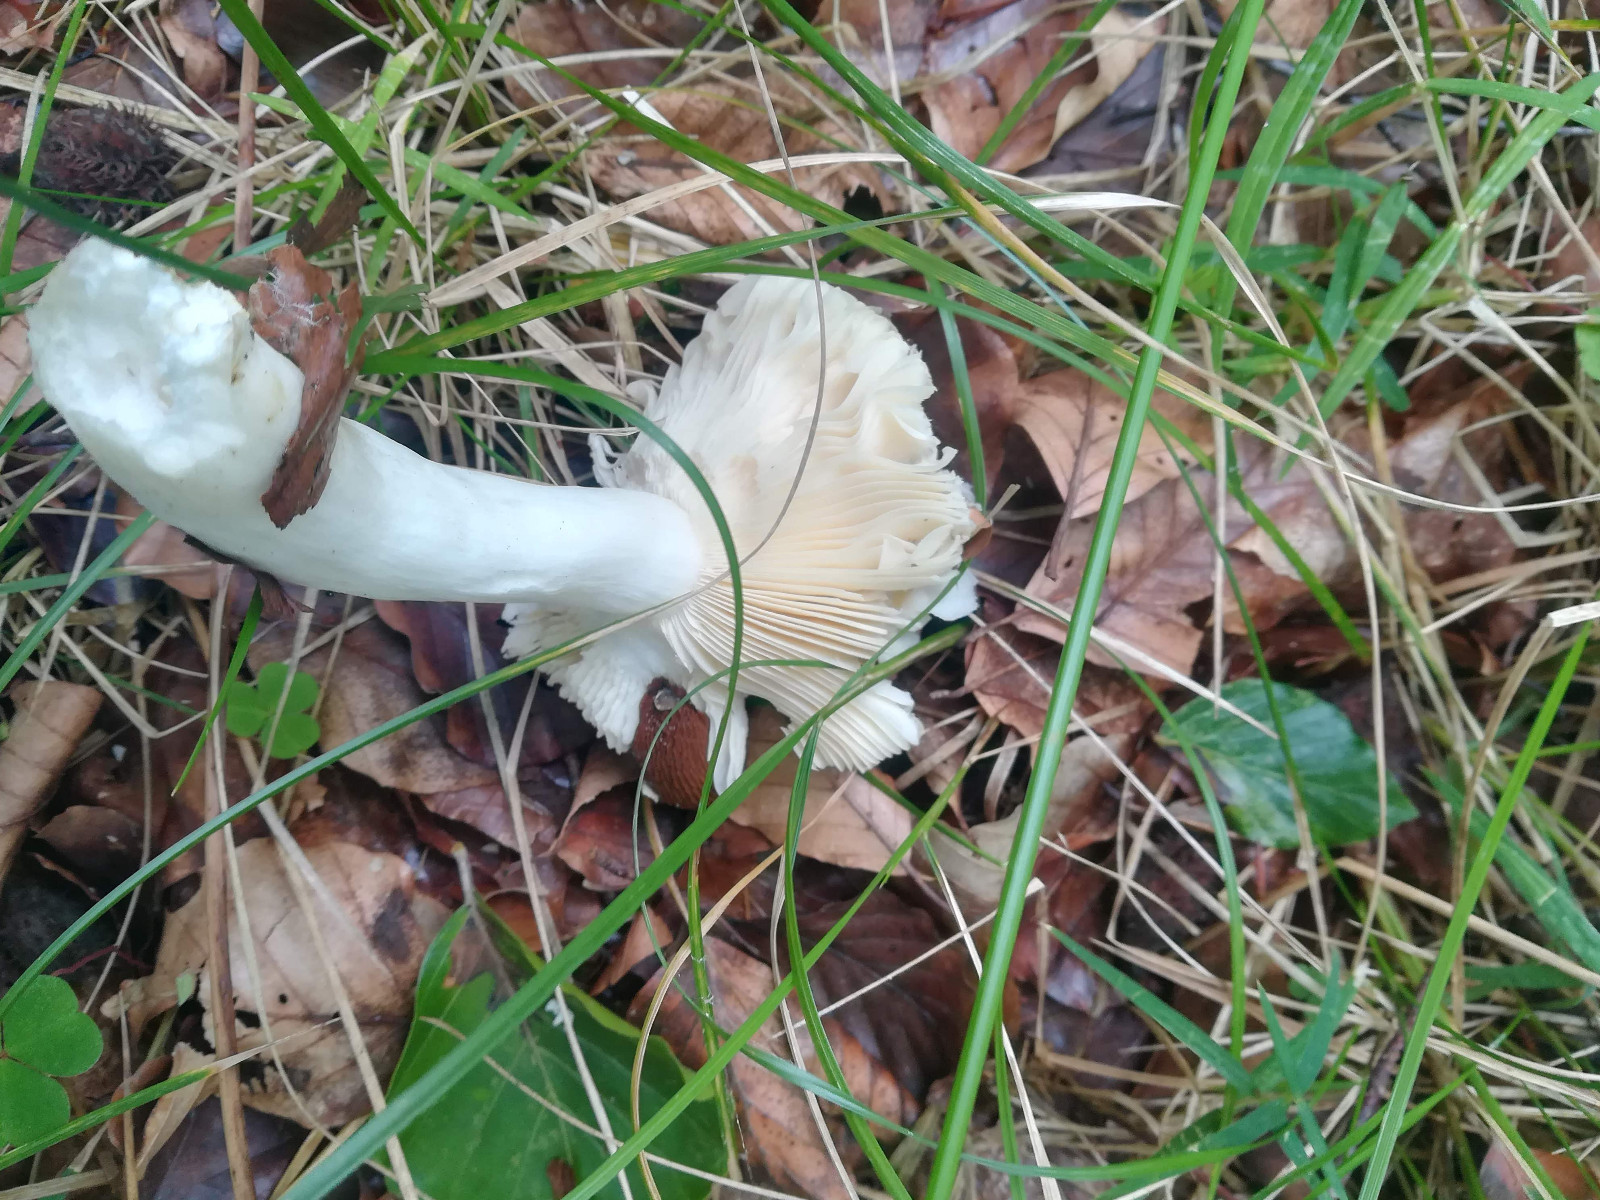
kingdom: Fungi
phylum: Basidiomycota
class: Agaricomycetes
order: Russulales
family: Russulaceae
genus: Russula
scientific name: Russula solaris
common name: sol-skørhat
